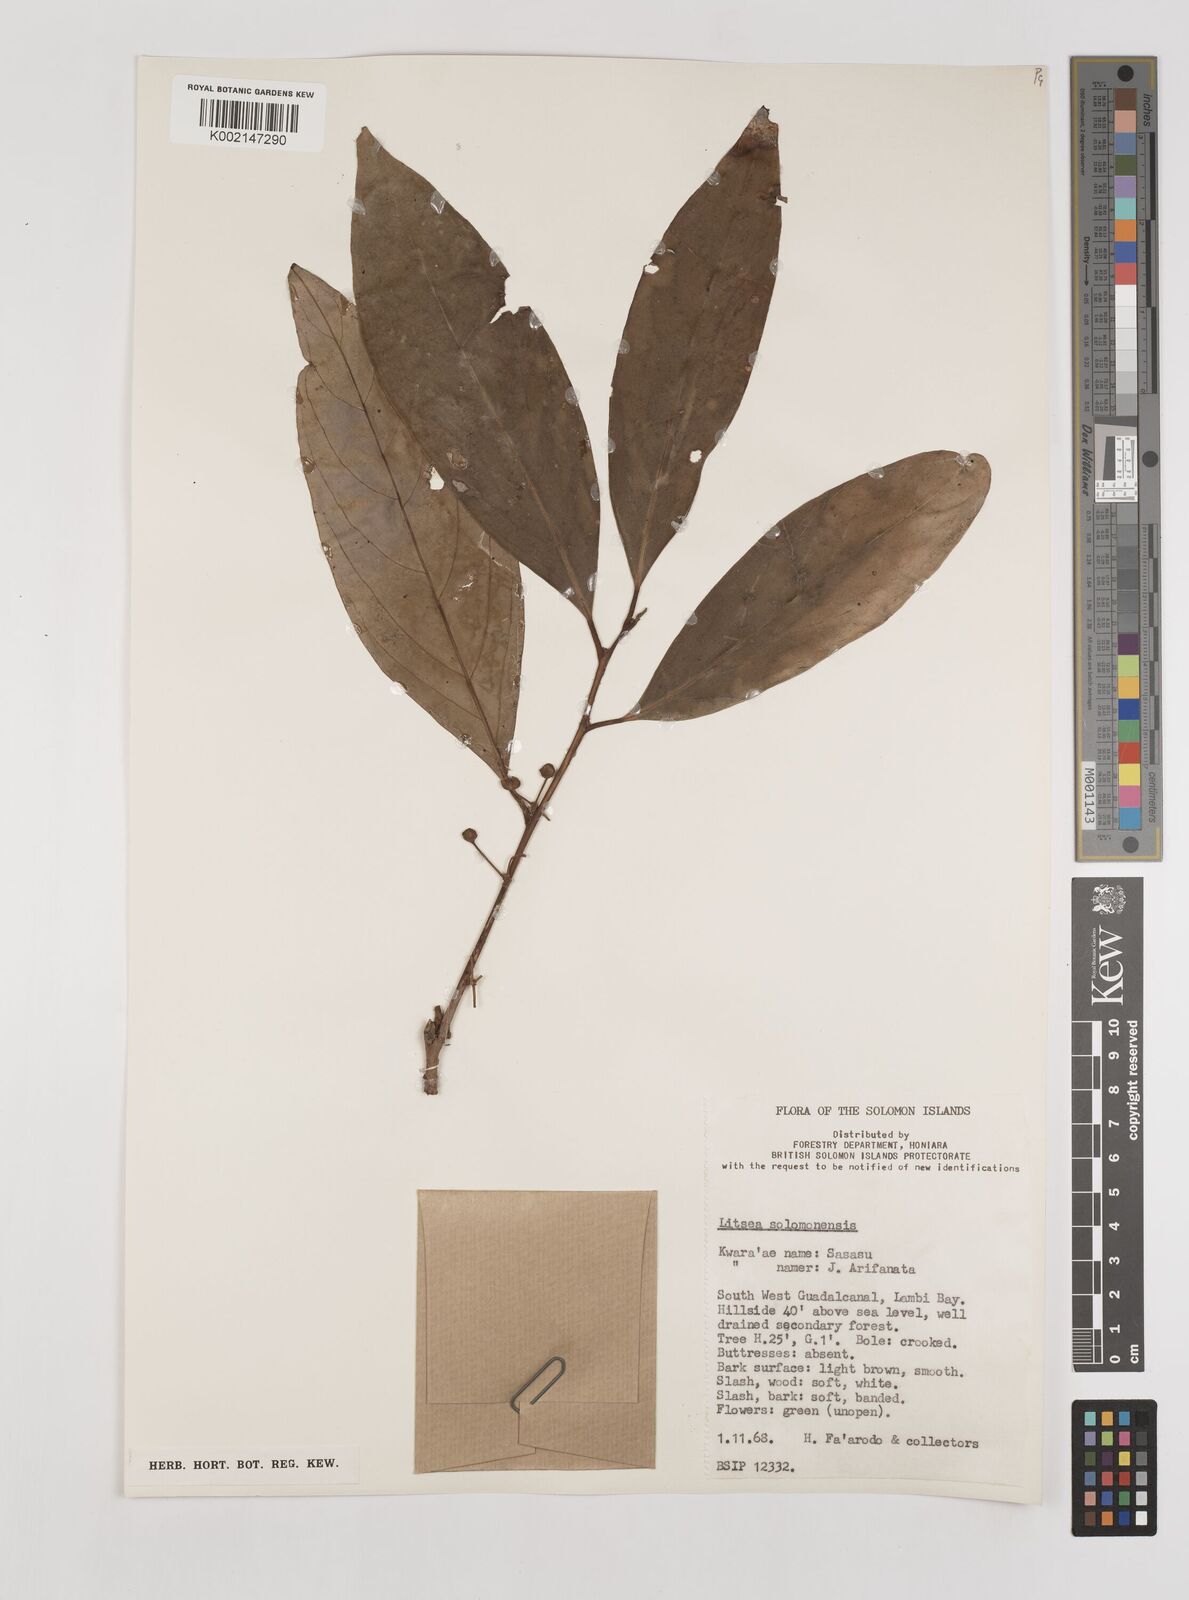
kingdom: Plantae
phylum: Tracheophyta
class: Magnoliopsida
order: Laurales
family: Lauraceae
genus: Litsea
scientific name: Litsea timoriana
